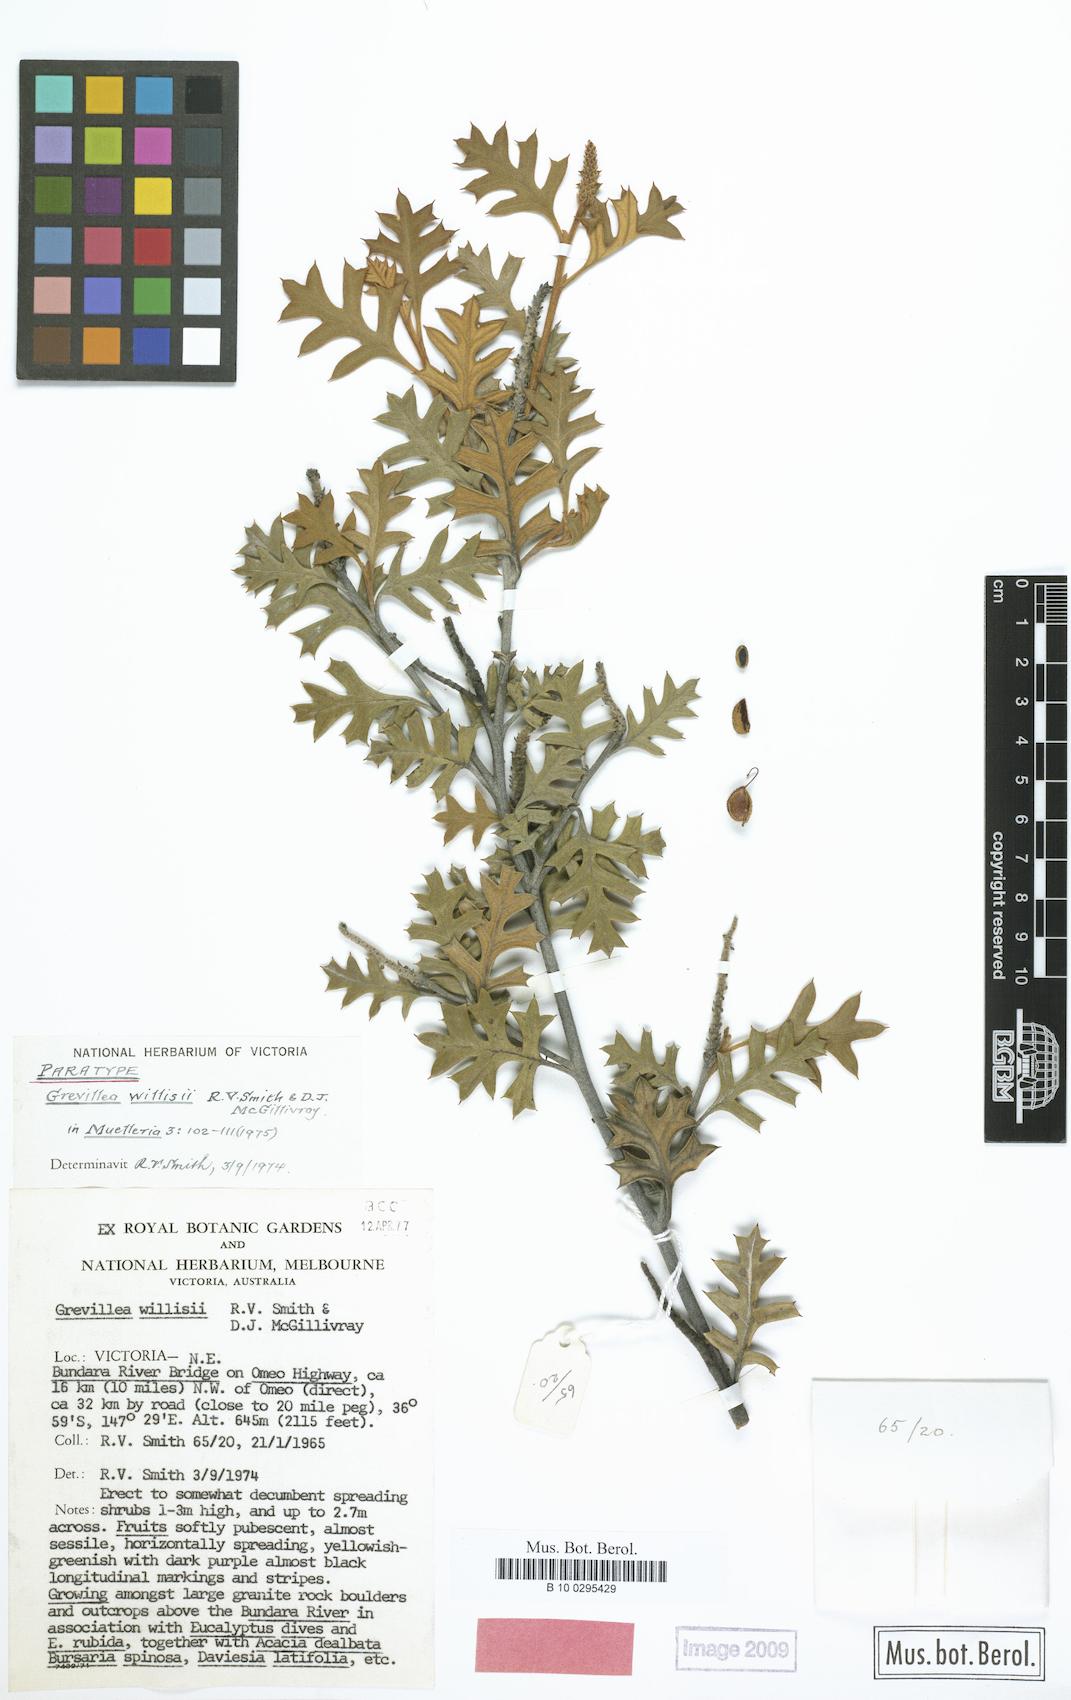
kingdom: Plantae
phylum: Tracheophyta
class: Magnoliopsida
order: Proteales
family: Proteaceae
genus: Grevillea
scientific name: Grevillea willisii
